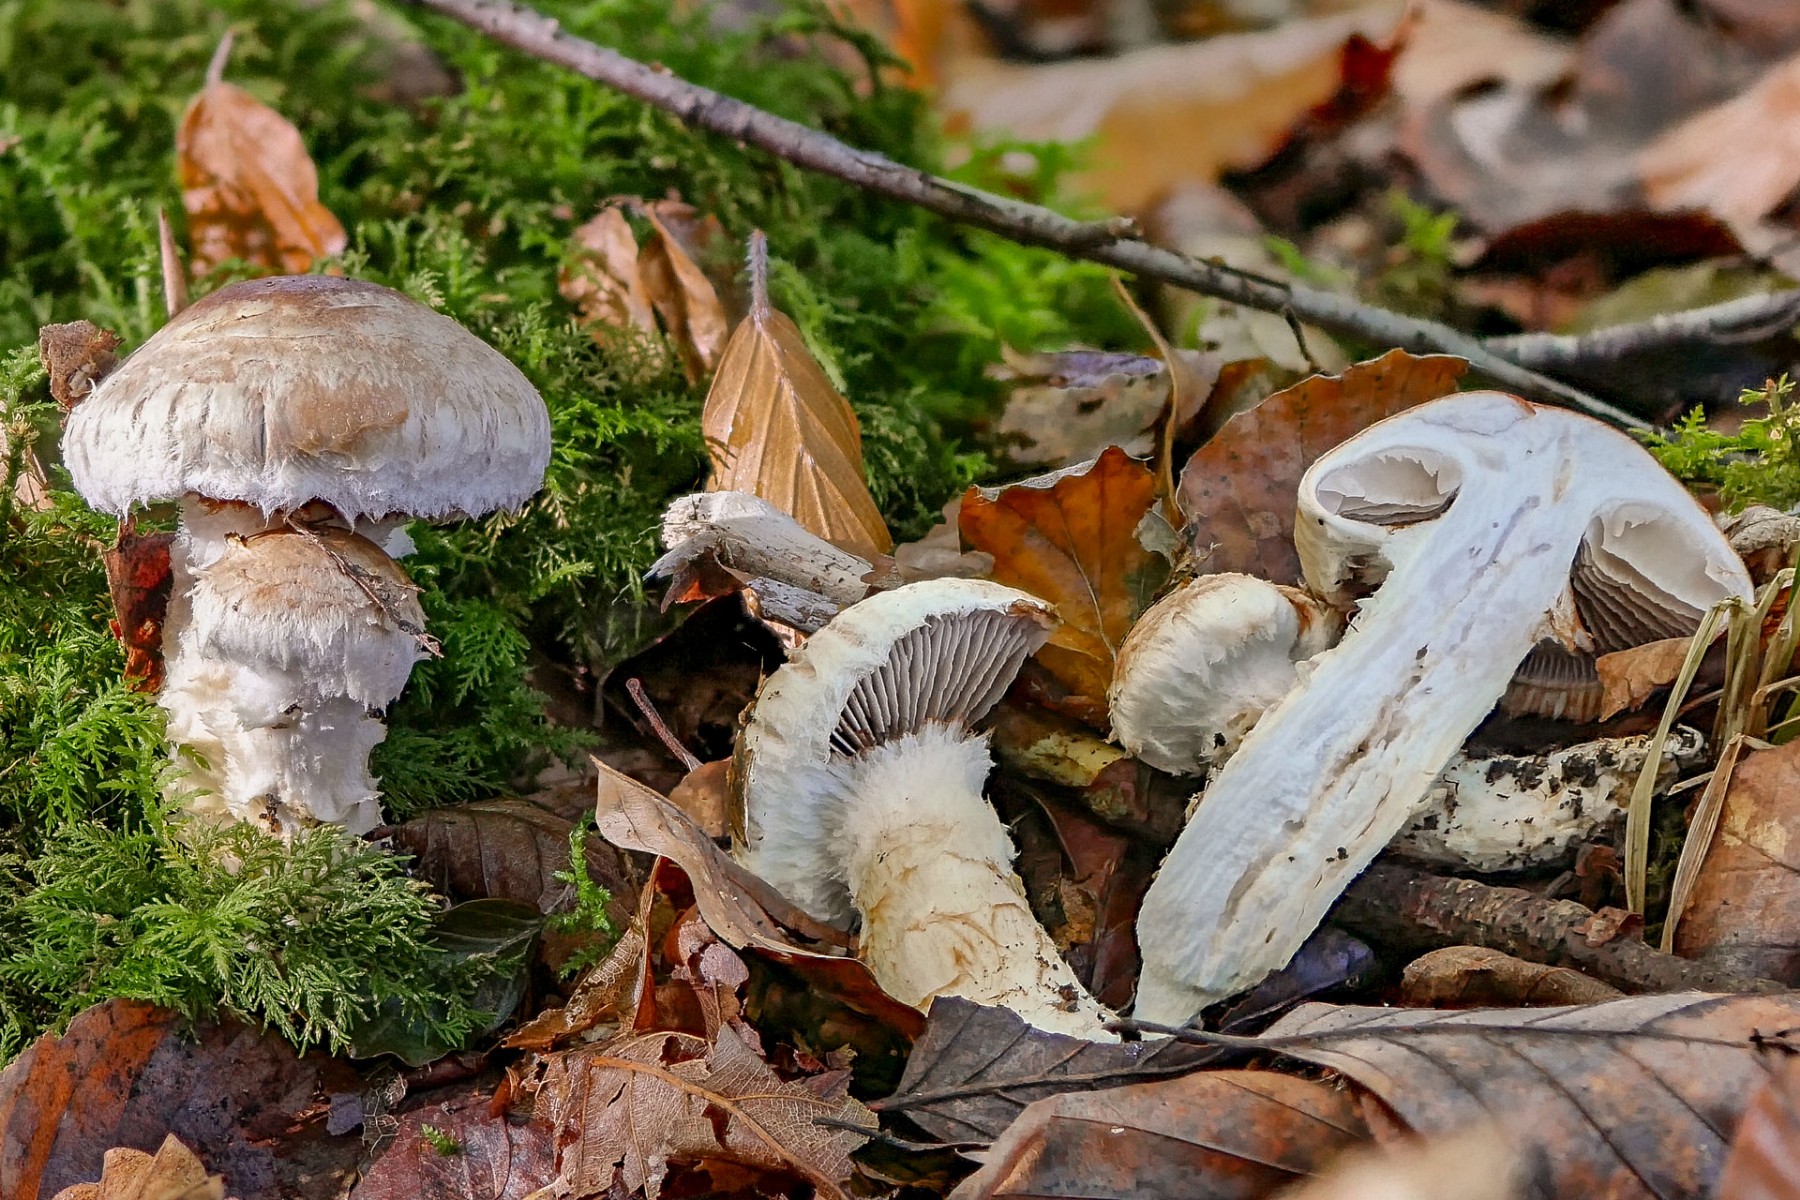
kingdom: Fungi
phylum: Basidiomycota
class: Agaricomycetes
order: Agaricales
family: Cortinariaceae
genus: Phlegmacium
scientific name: Phlegmacium vulpinum
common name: ringbæltet slørhat
